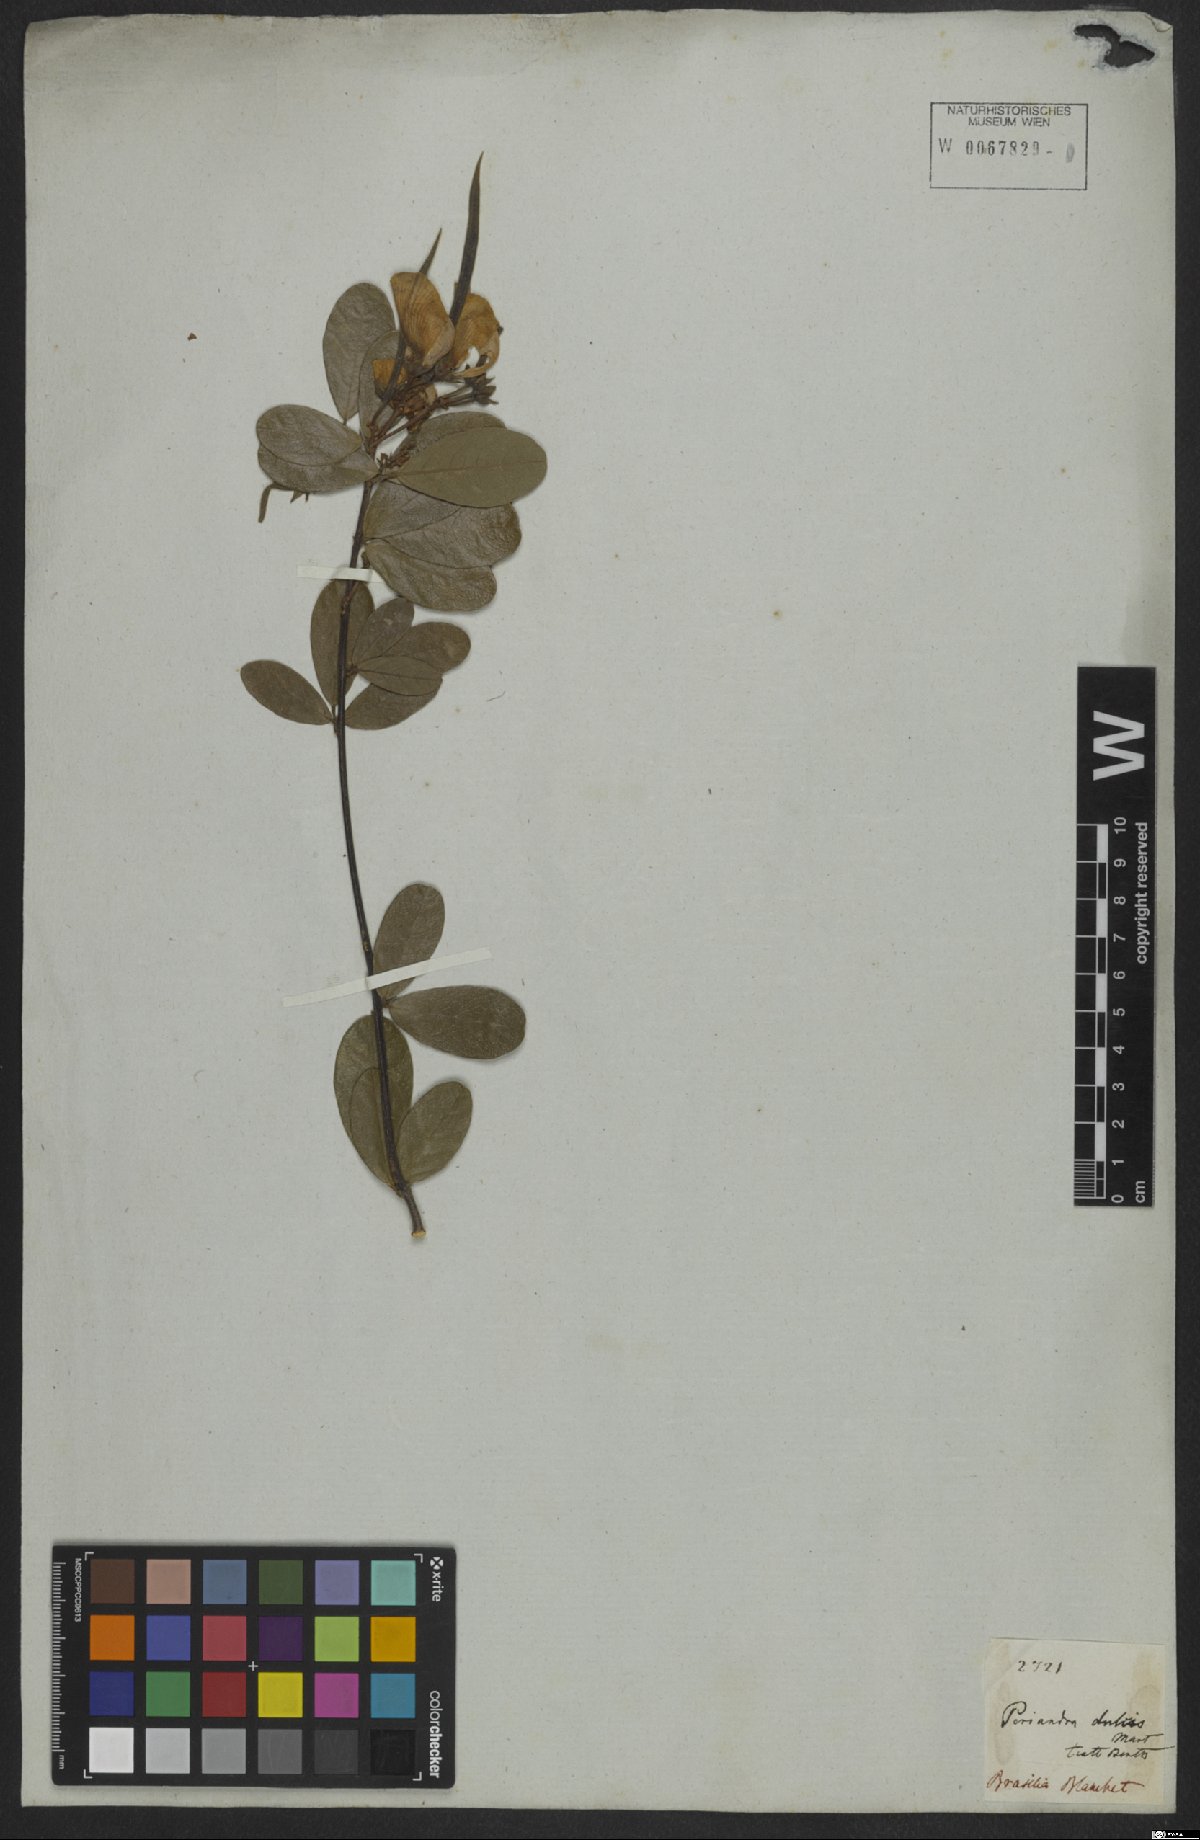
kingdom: Plantae
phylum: Tracheophyta
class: Magnoliopsida
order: Fabales
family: Fabaceae
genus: Periandra
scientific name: Periandra mediterranea
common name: Brazilian licorice
